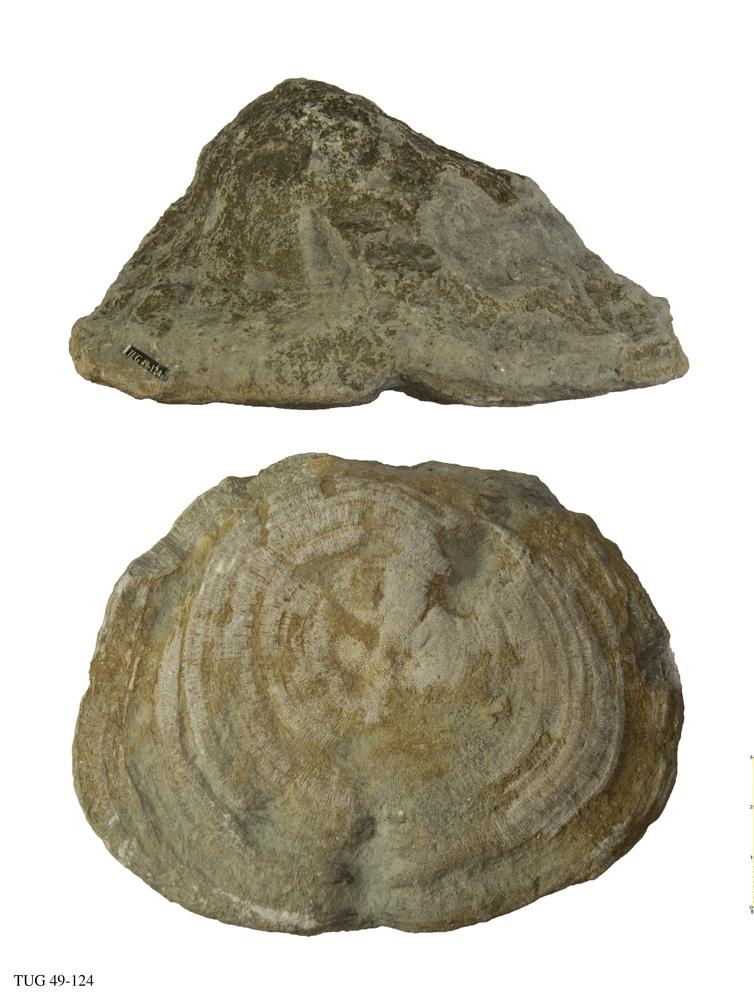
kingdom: Animalia
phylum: Bryozoa
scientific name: Bryozoa
